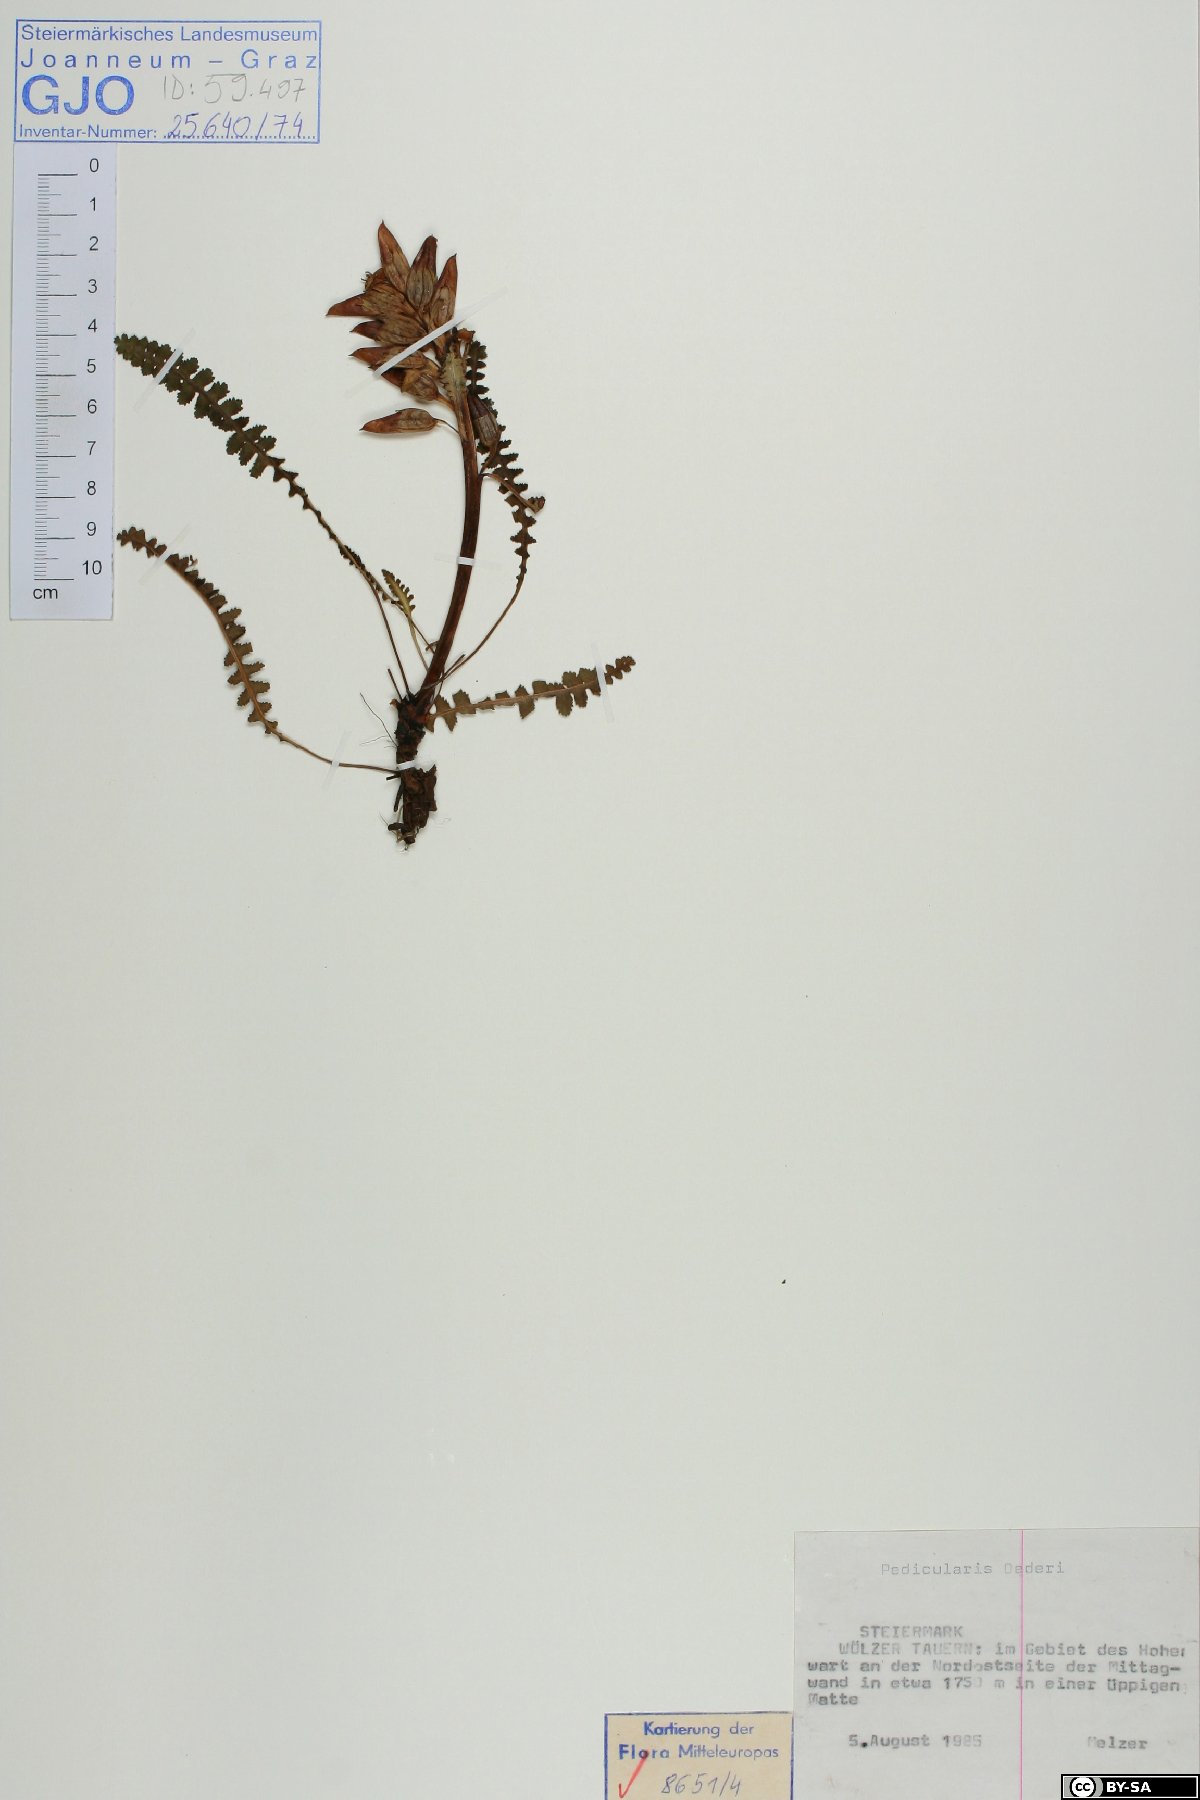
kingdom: Plantae
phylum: Tracheophyta
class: Magnoliopsida
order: Lamiales
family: Orobanchaceae
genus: Pedicularis
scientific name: Pedicularis oederi
